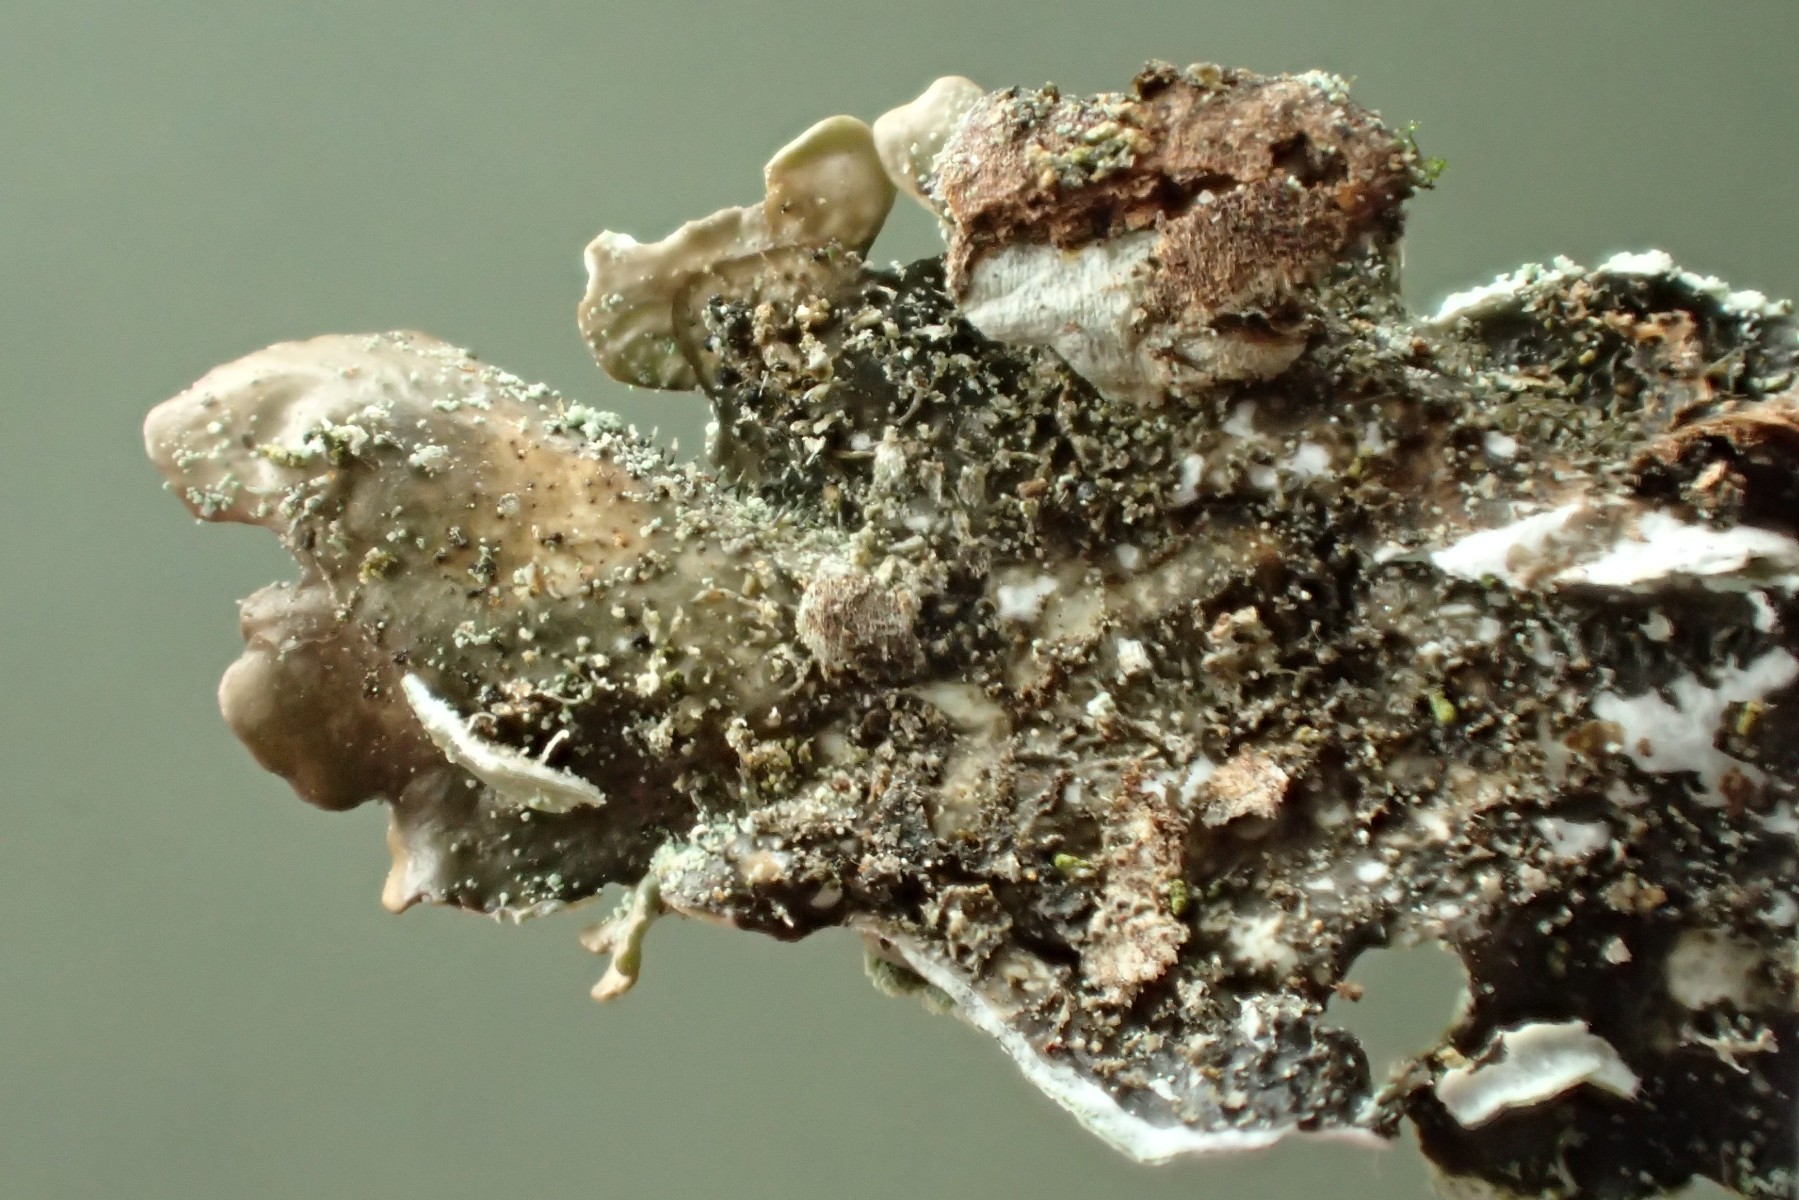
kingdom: Fungi
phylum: Ascomycota
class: Lecanoromycetes
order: Lecanorales
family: Parmeliaceae
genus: Punctelia
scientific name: Punctelia subrudecta
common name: punkt-skållav
